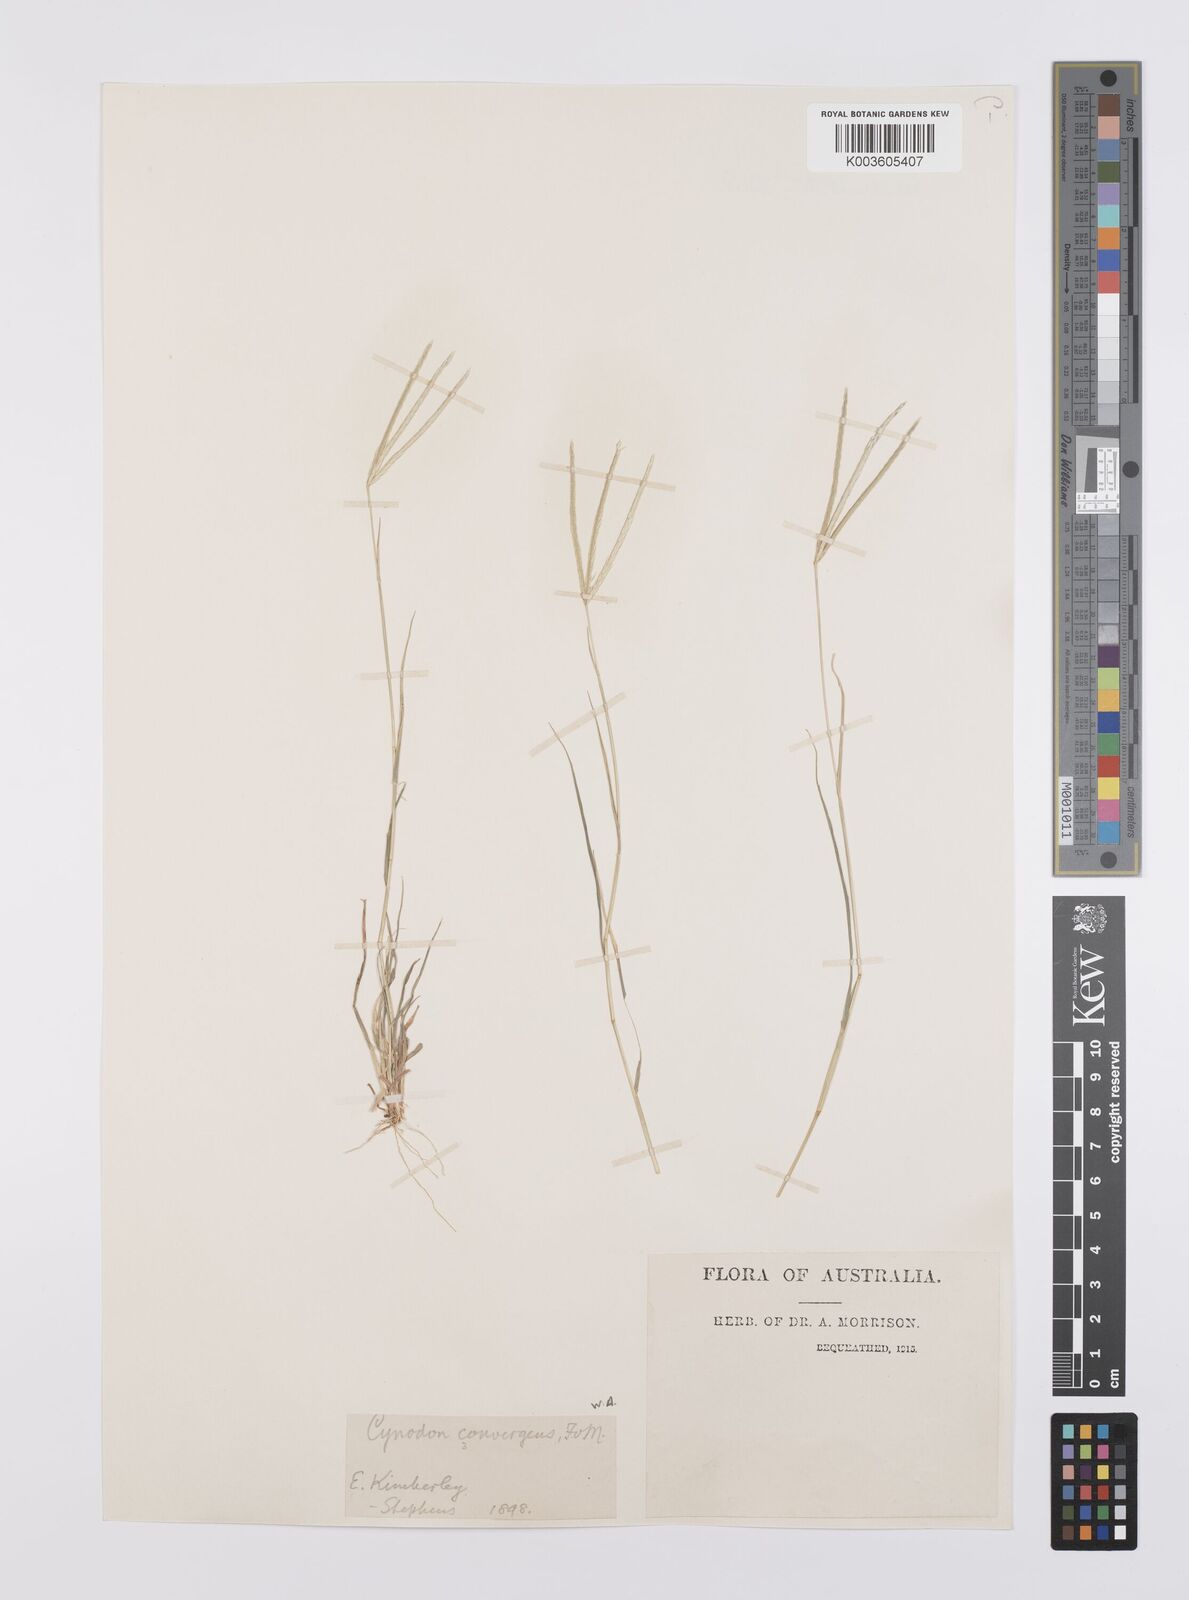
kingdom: Plantae
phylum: Tracheophyta
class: Liliopsida
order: Poales
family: Poaceae
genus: Cynodon
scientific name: Cynodon
